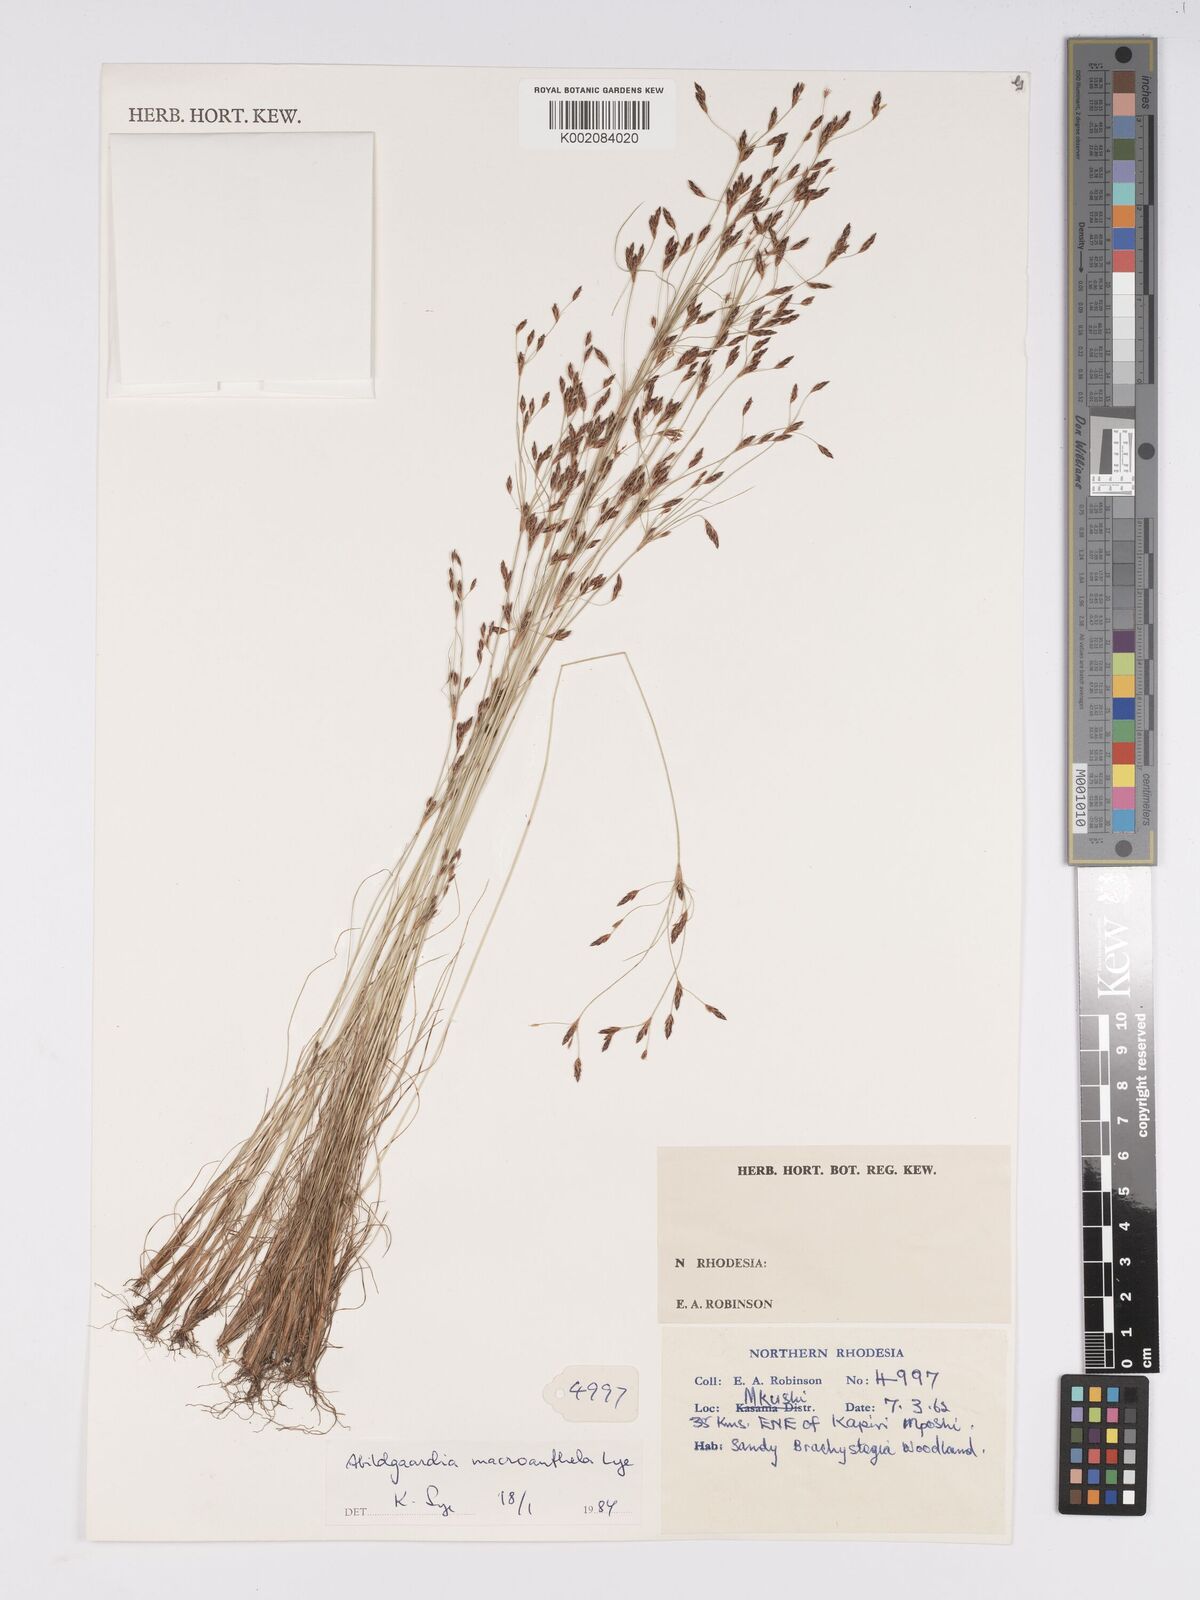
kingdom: Plantae
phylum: Tracheophyta
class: Liliopsida
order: Poales
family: Cyperaceae
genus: Bulbostylis
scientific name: Bulbostylis flexuosa
